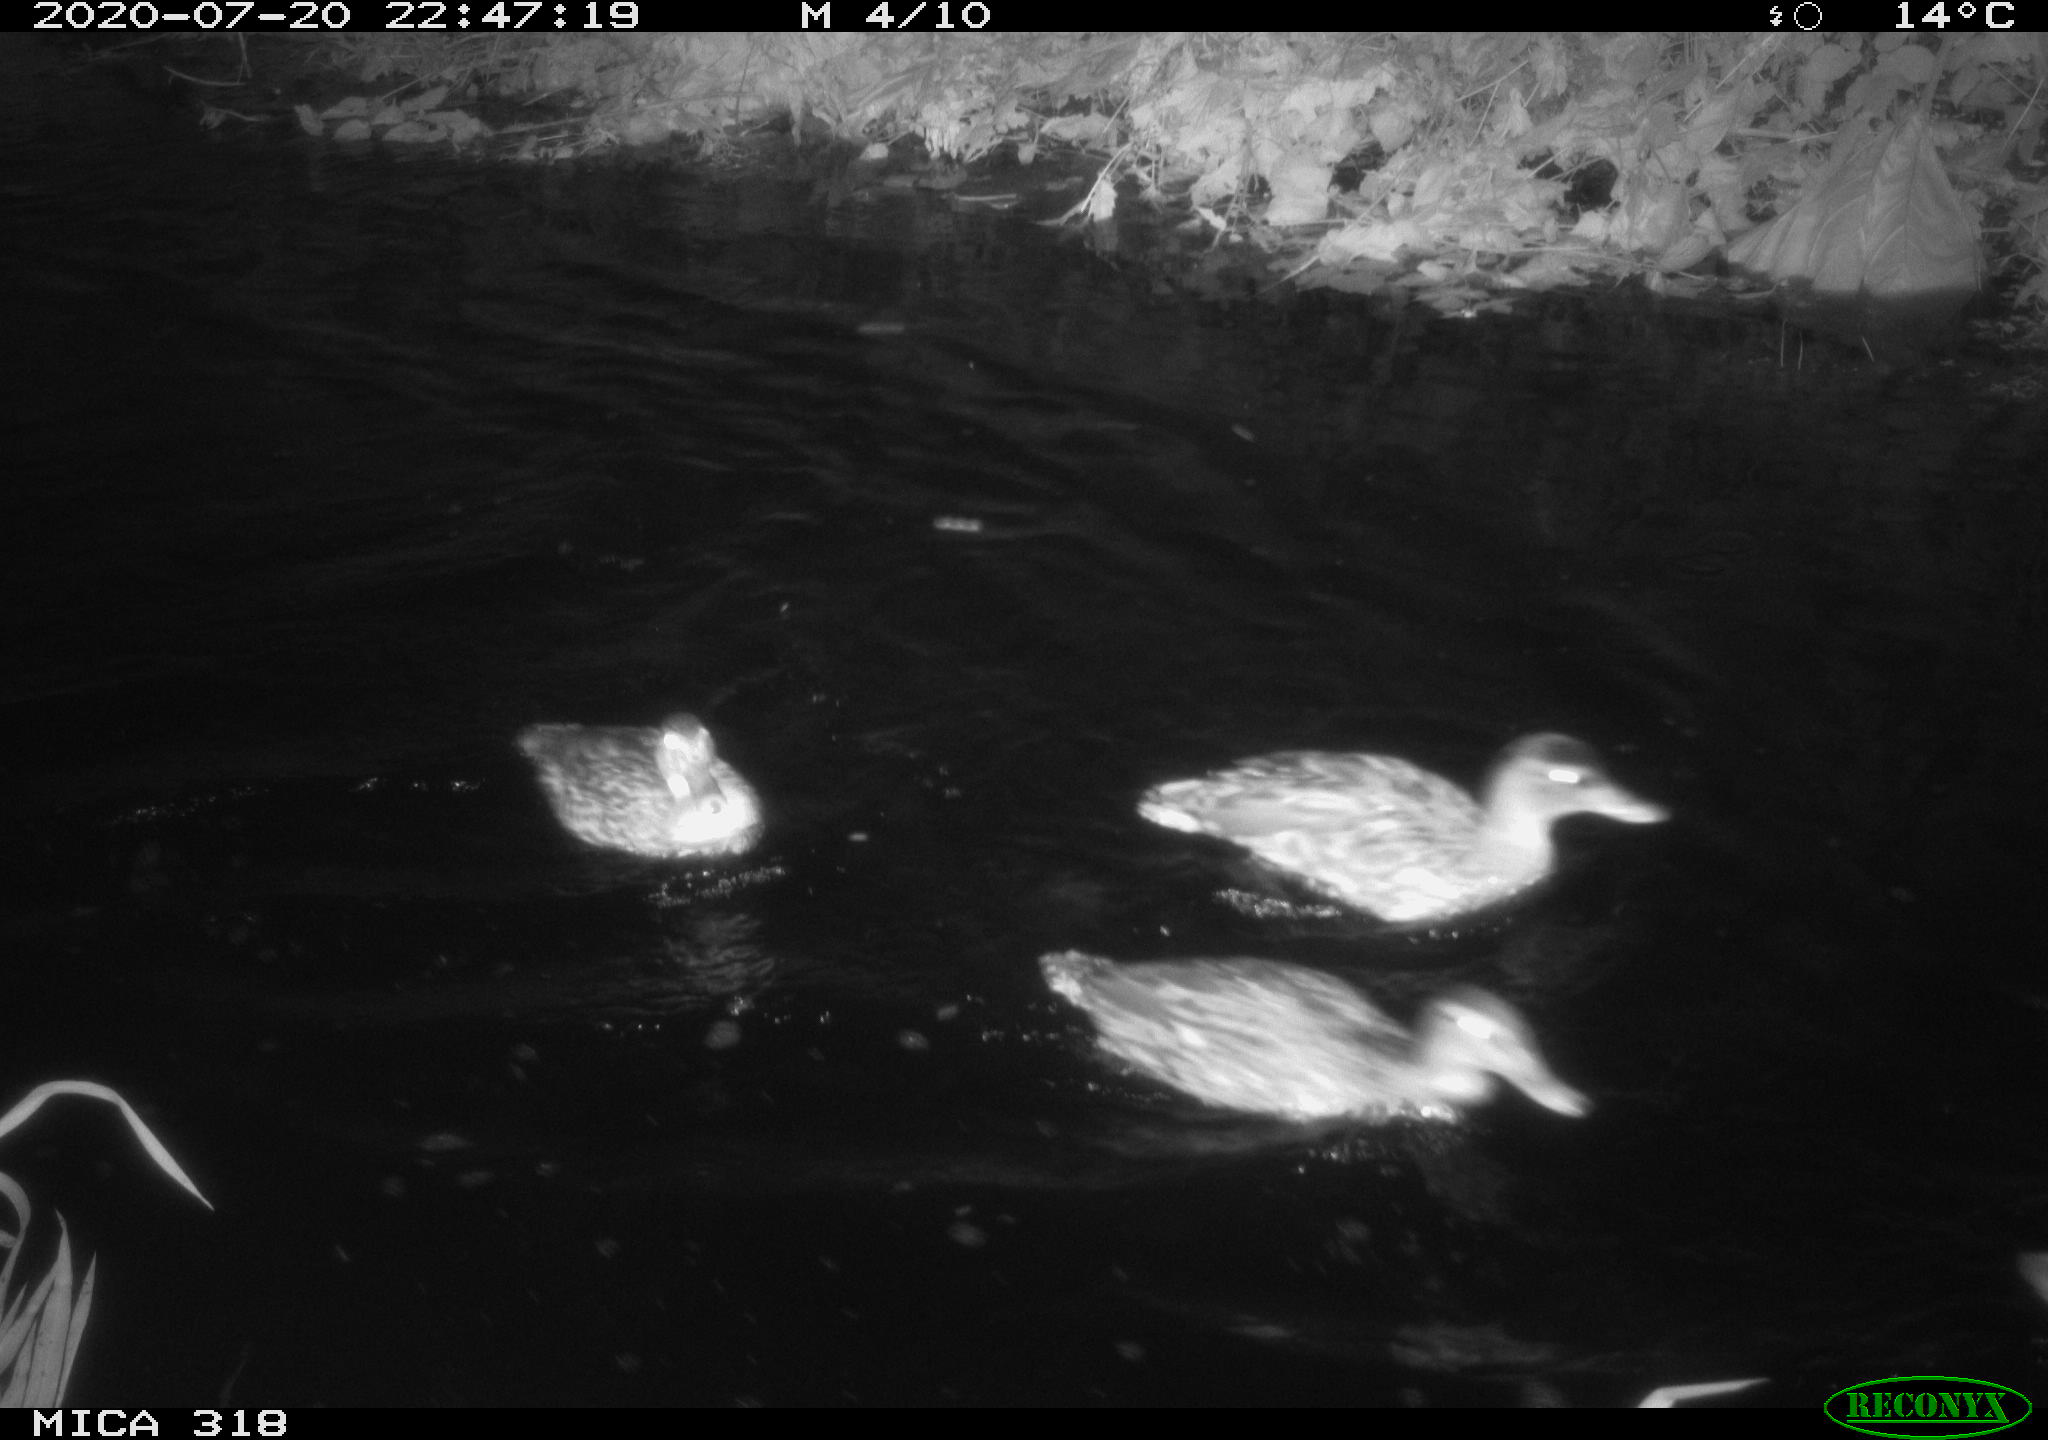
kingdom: Animalia
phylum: Chordata
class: Aves
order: Anseriformes
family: Anatidae
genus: Anas
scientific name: Anas platyrhynchos
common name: Mallard
